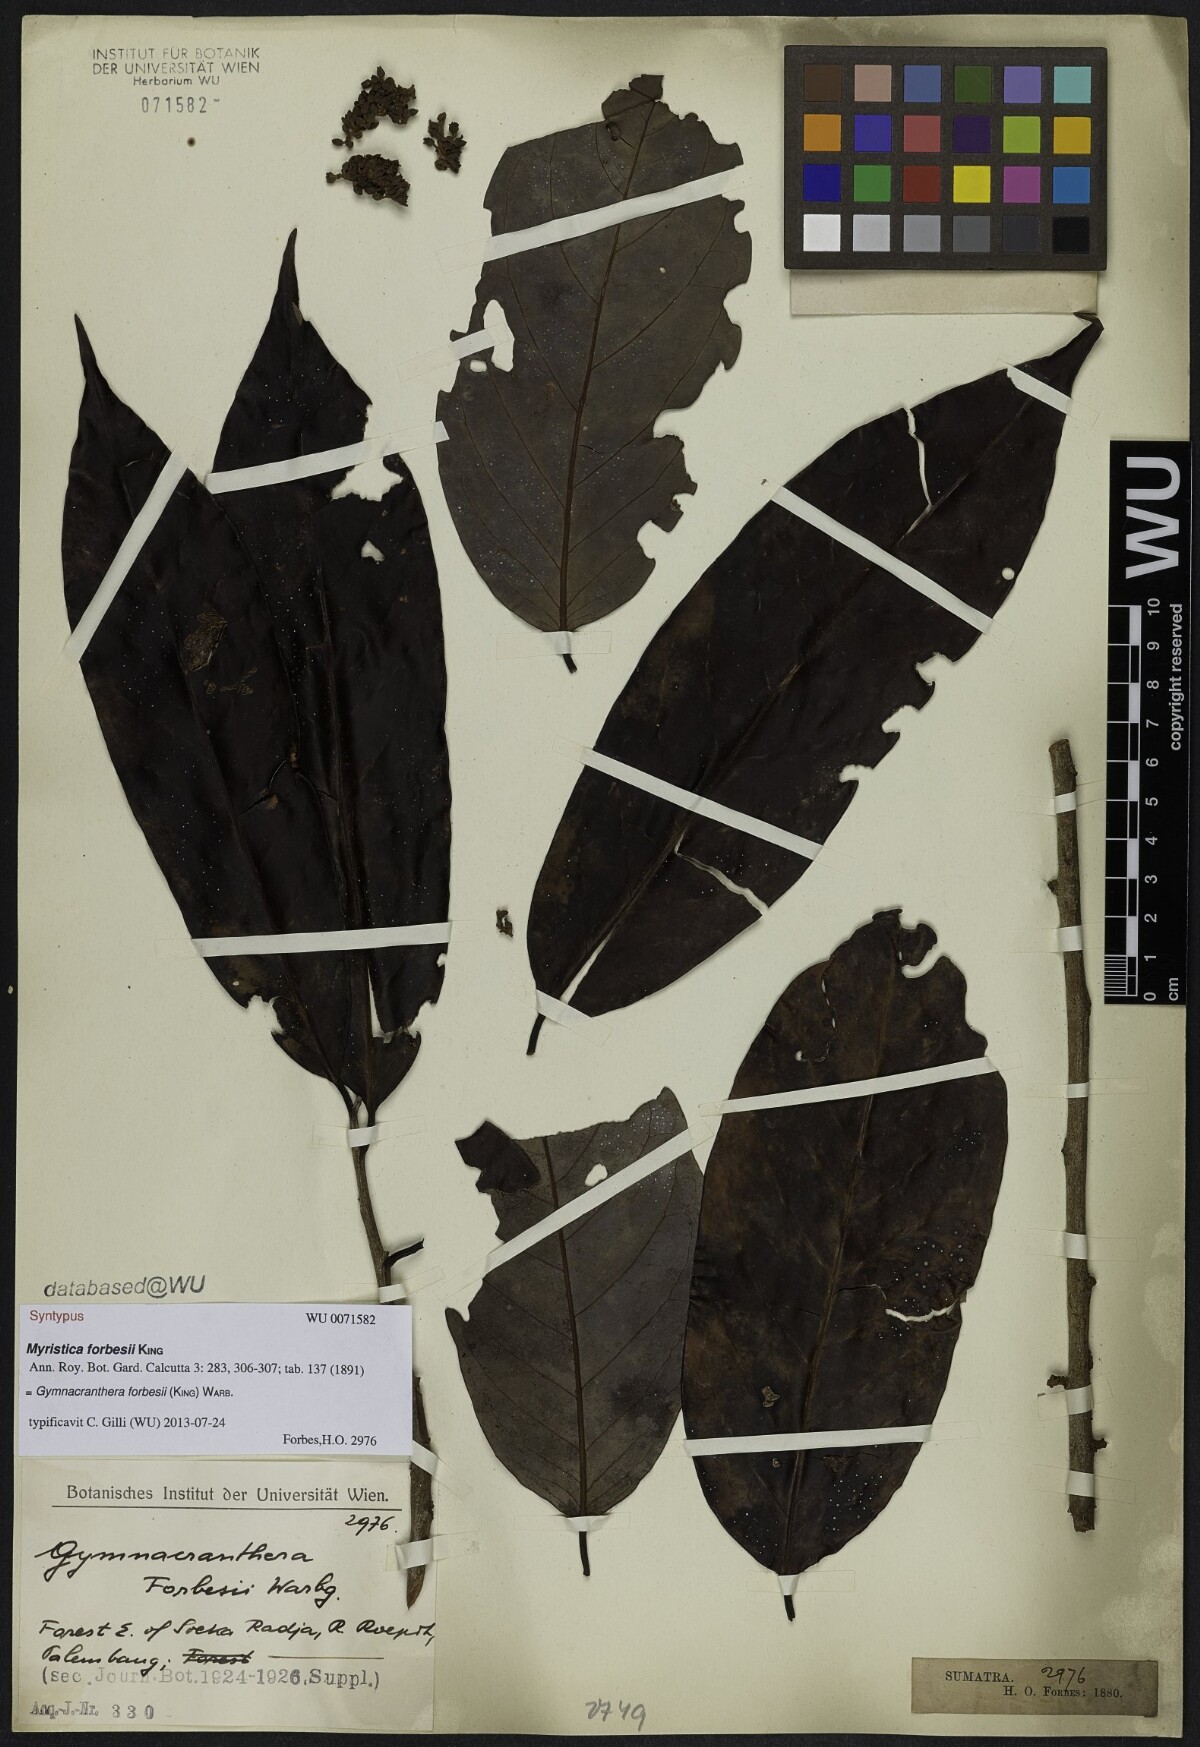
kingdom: Plantae
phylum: Tracheophyta
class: Magnoliopsida
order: Magnoliales
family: Myristicaceae
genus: Gymnacranthera
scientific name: Gymnacranthera forbesii
